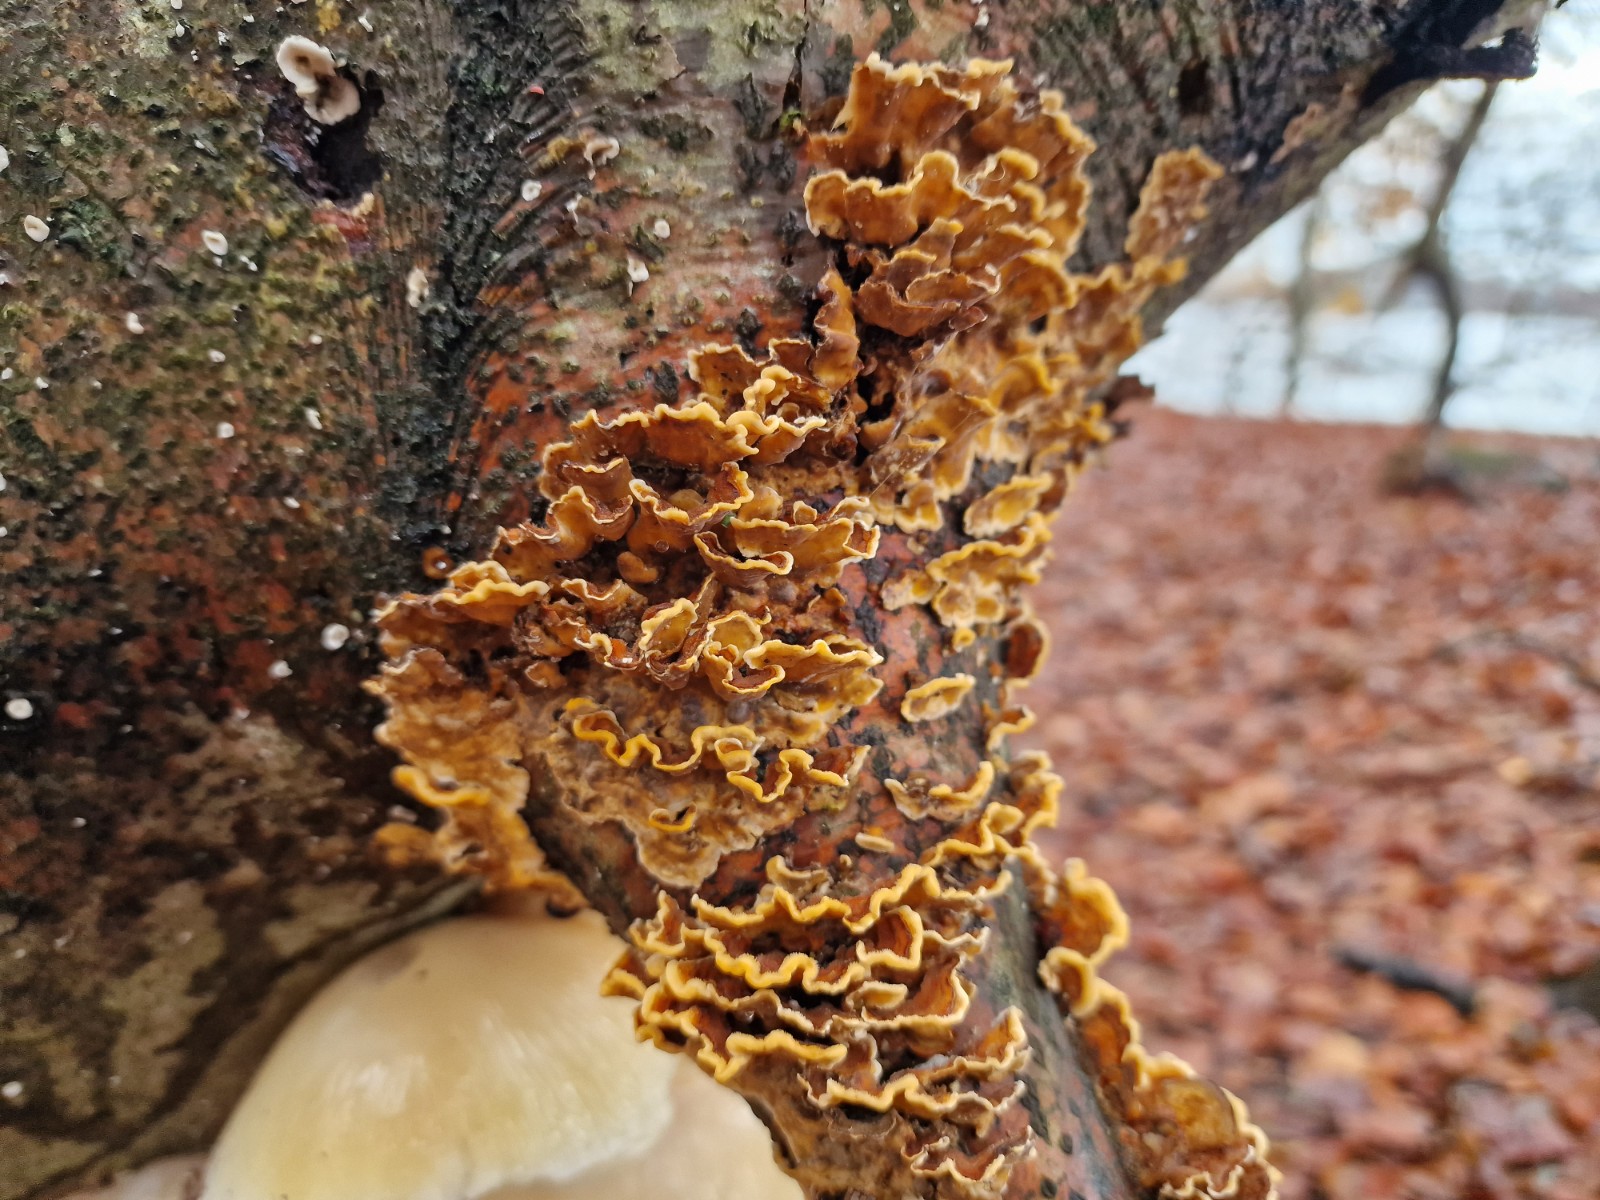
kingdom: Fungi
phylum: Basidiomycota
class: Agaricomycetes
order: Russulales
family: Stereaceae
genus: Stereum
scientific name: Stereum hirsutum
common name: håret lædersvamp
